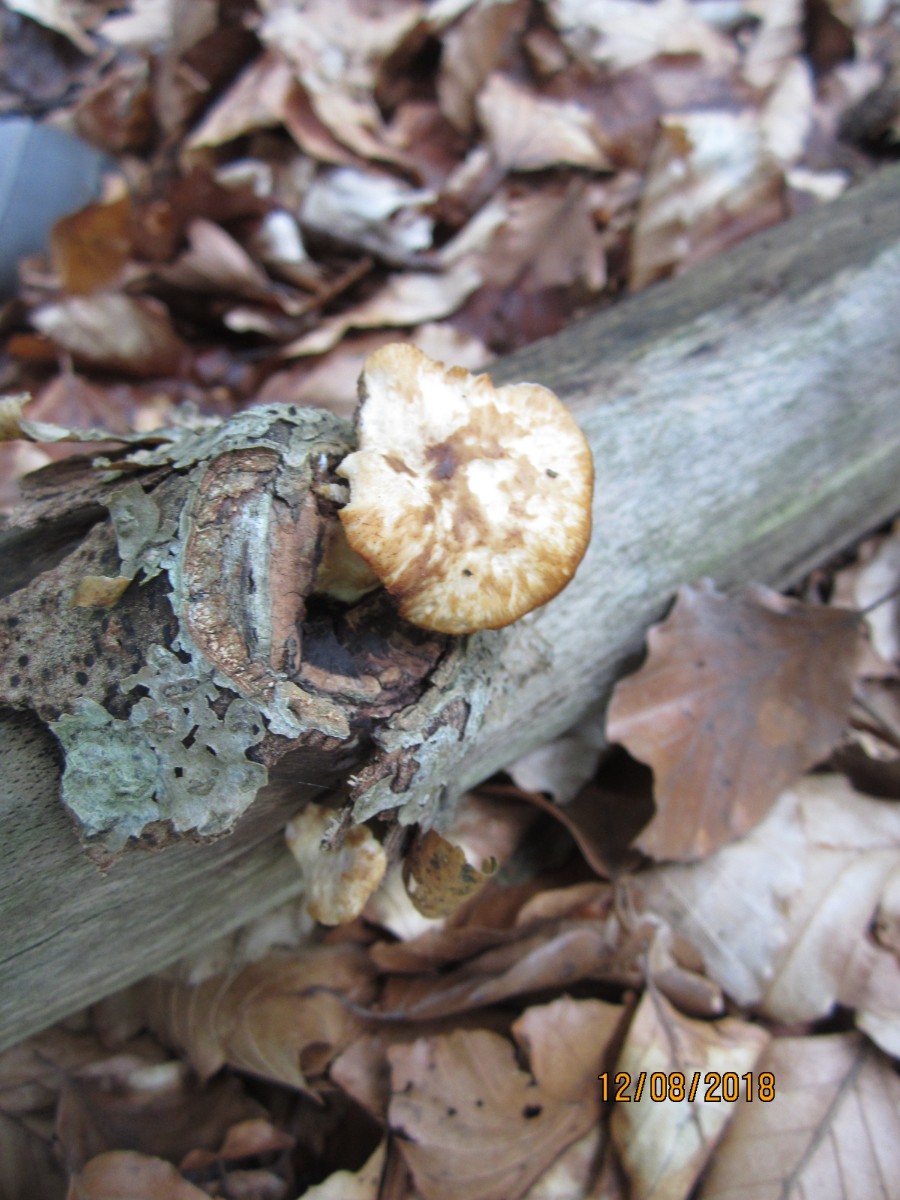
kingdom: Fungi
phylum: Basidiomycota
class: Agaricomycetes
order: Polyporales
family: Polyporaceae
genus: Polyporus
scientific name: Polyporus tuberaster
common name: knoldet stilkporesvamp
